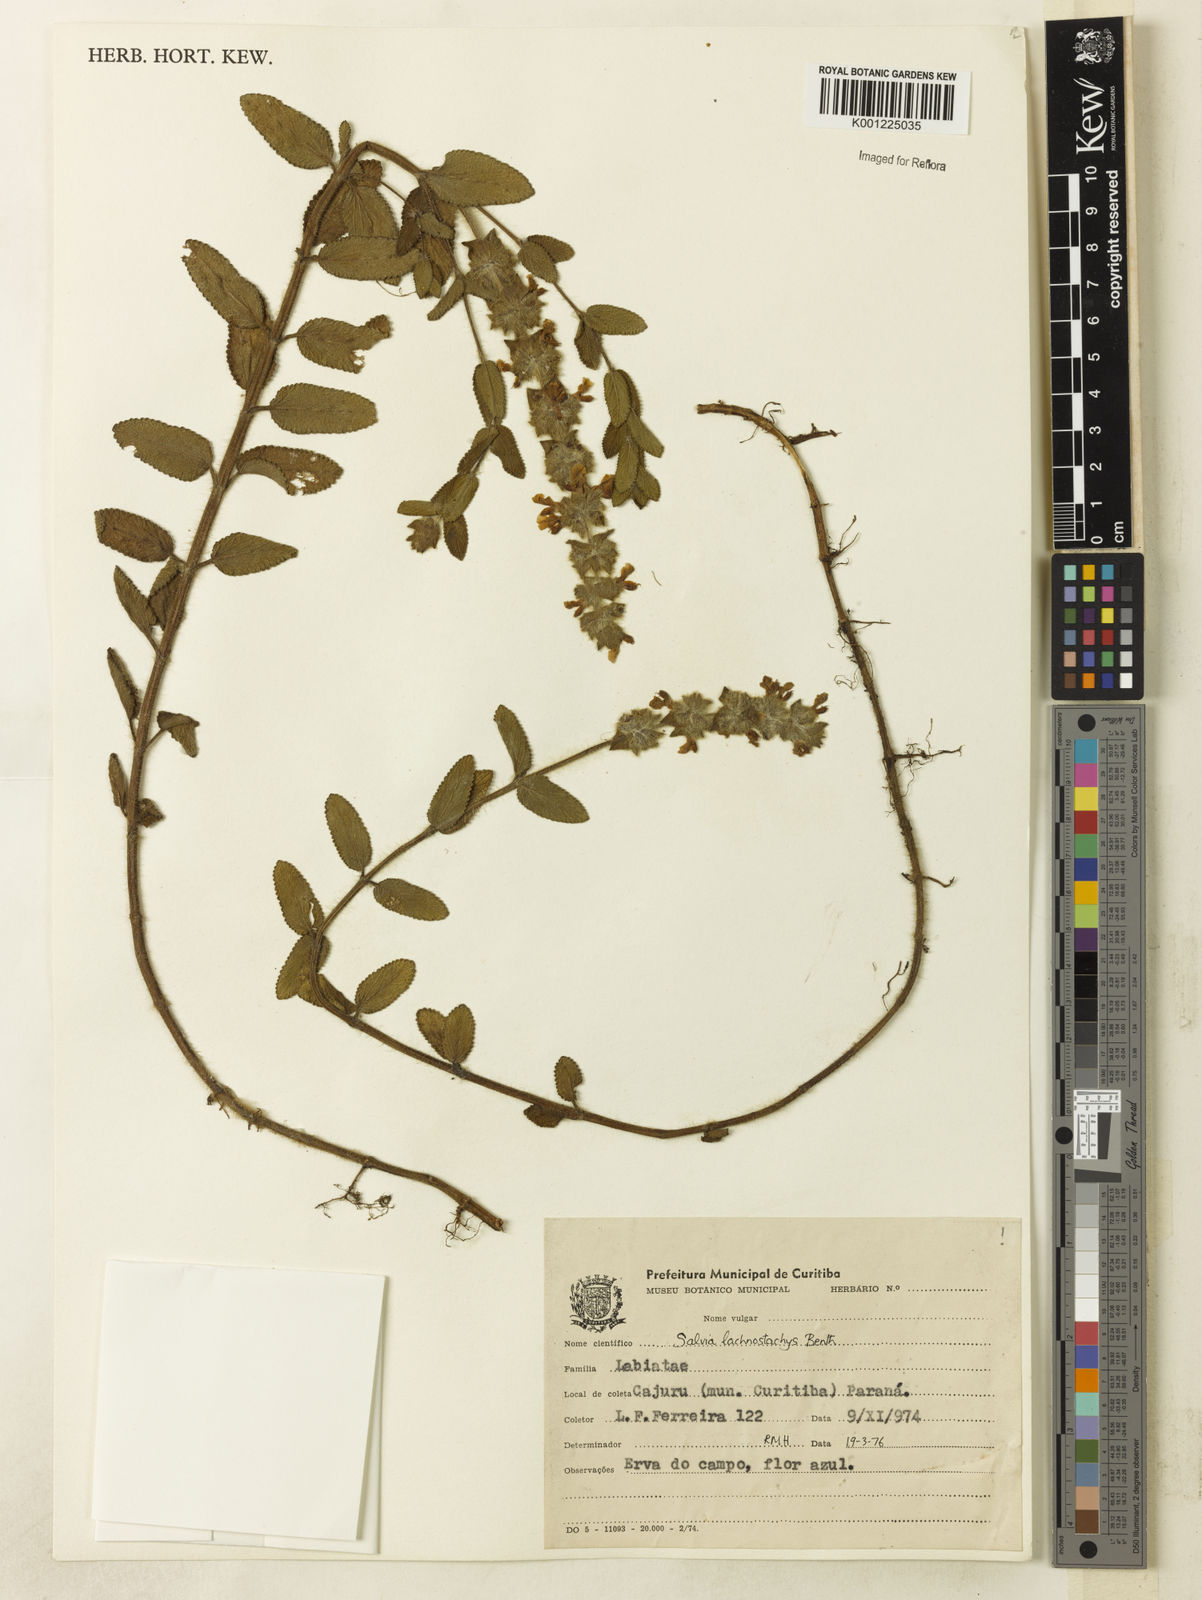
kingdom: Plantae
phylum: Tracheophyta
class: Magnoliopsida
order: Lamiales
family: Lamiaceae
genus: Salvia
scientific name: Salvia lachnostachys
